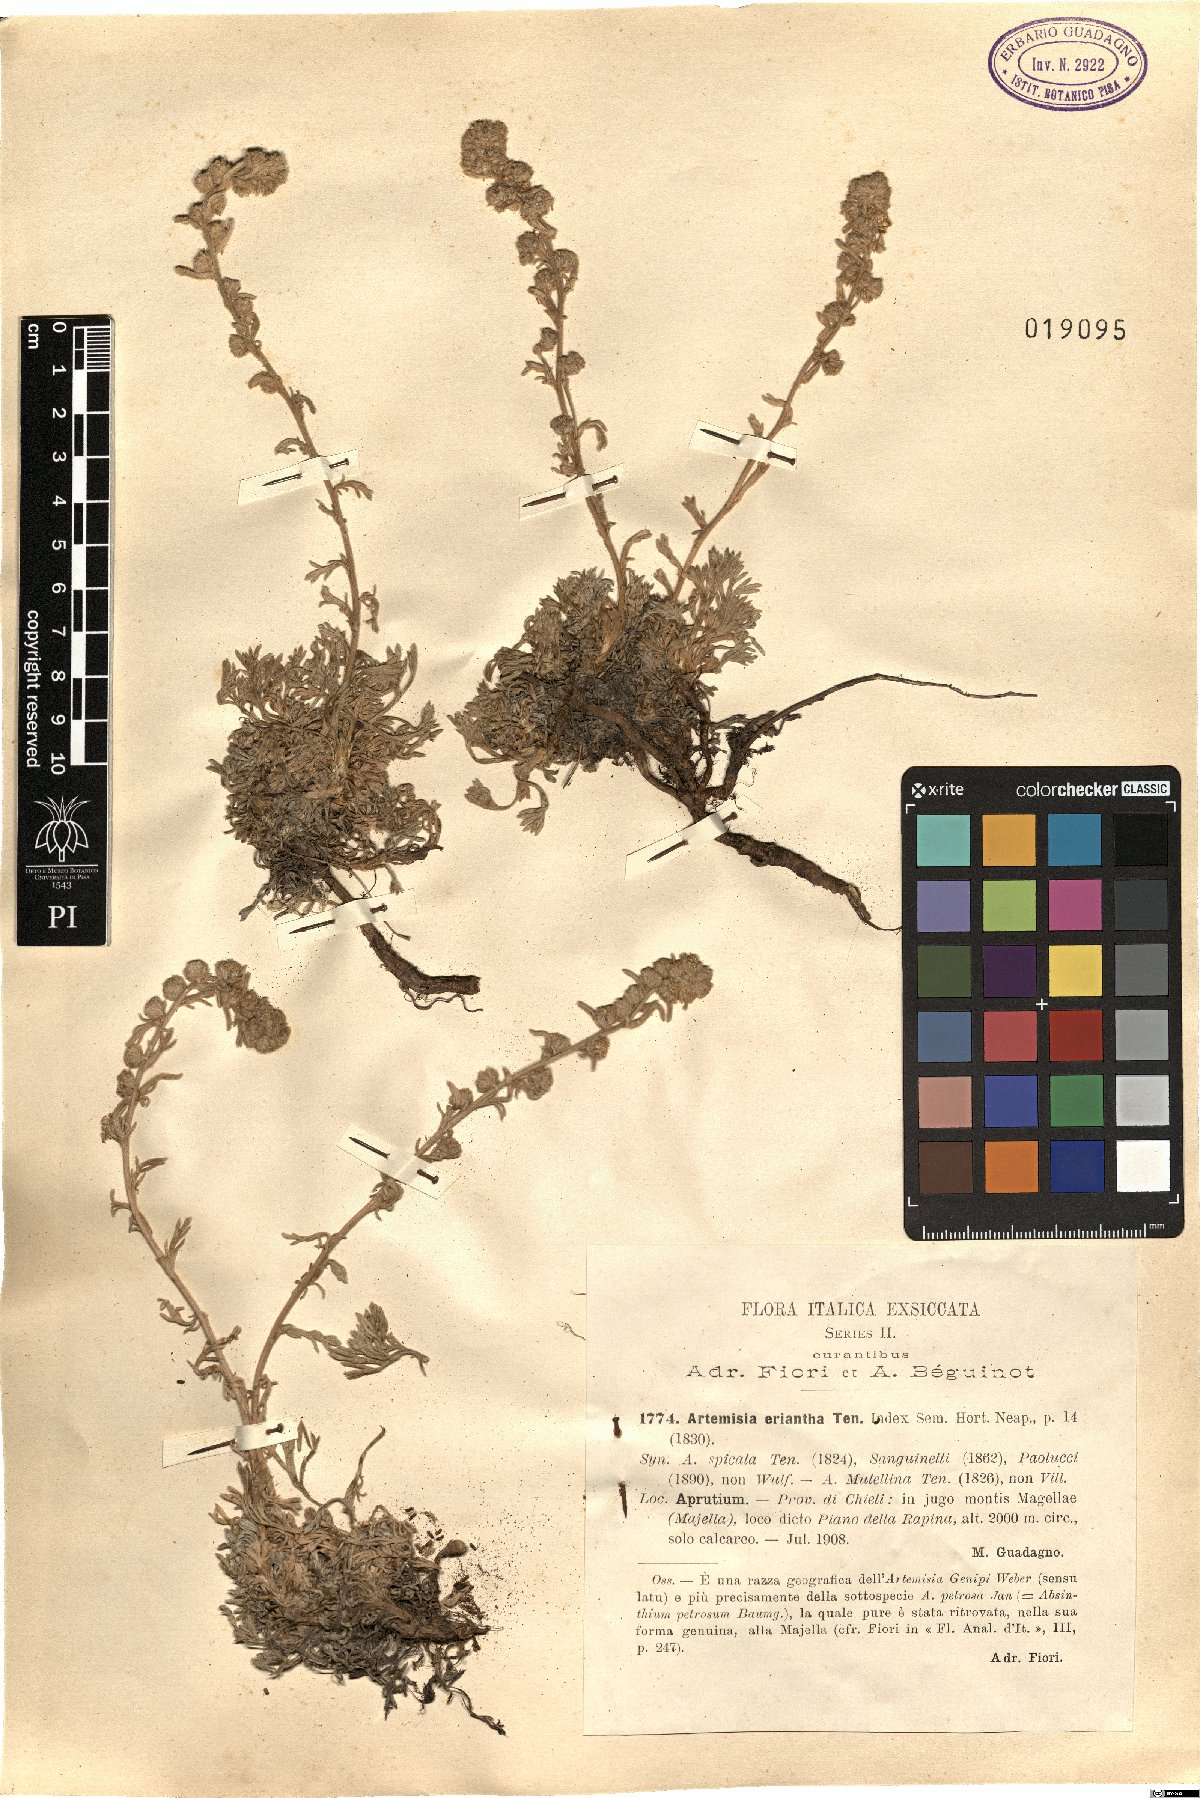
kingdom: Plantae
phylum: Tracheophyta
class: Magnoliopsida
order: Asterales
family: Asteraceae
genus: Artemisia
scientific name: Artemisia eriantha
